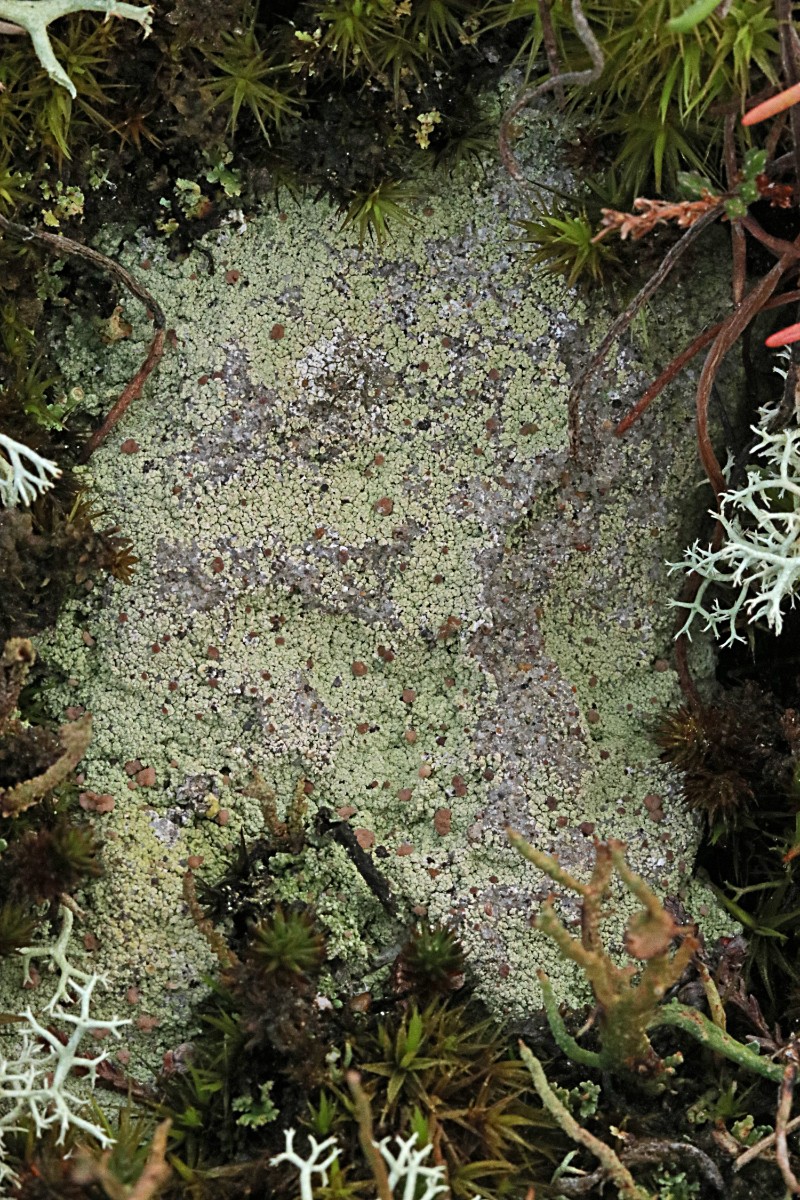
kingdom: Fungi
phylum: Ascomycota
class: Lecanoromycetes
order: Baeomycetales
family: Baeomycetaceae
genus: Baeomyces
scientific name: Baeomyces rufus
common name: rødbrun svampelav
